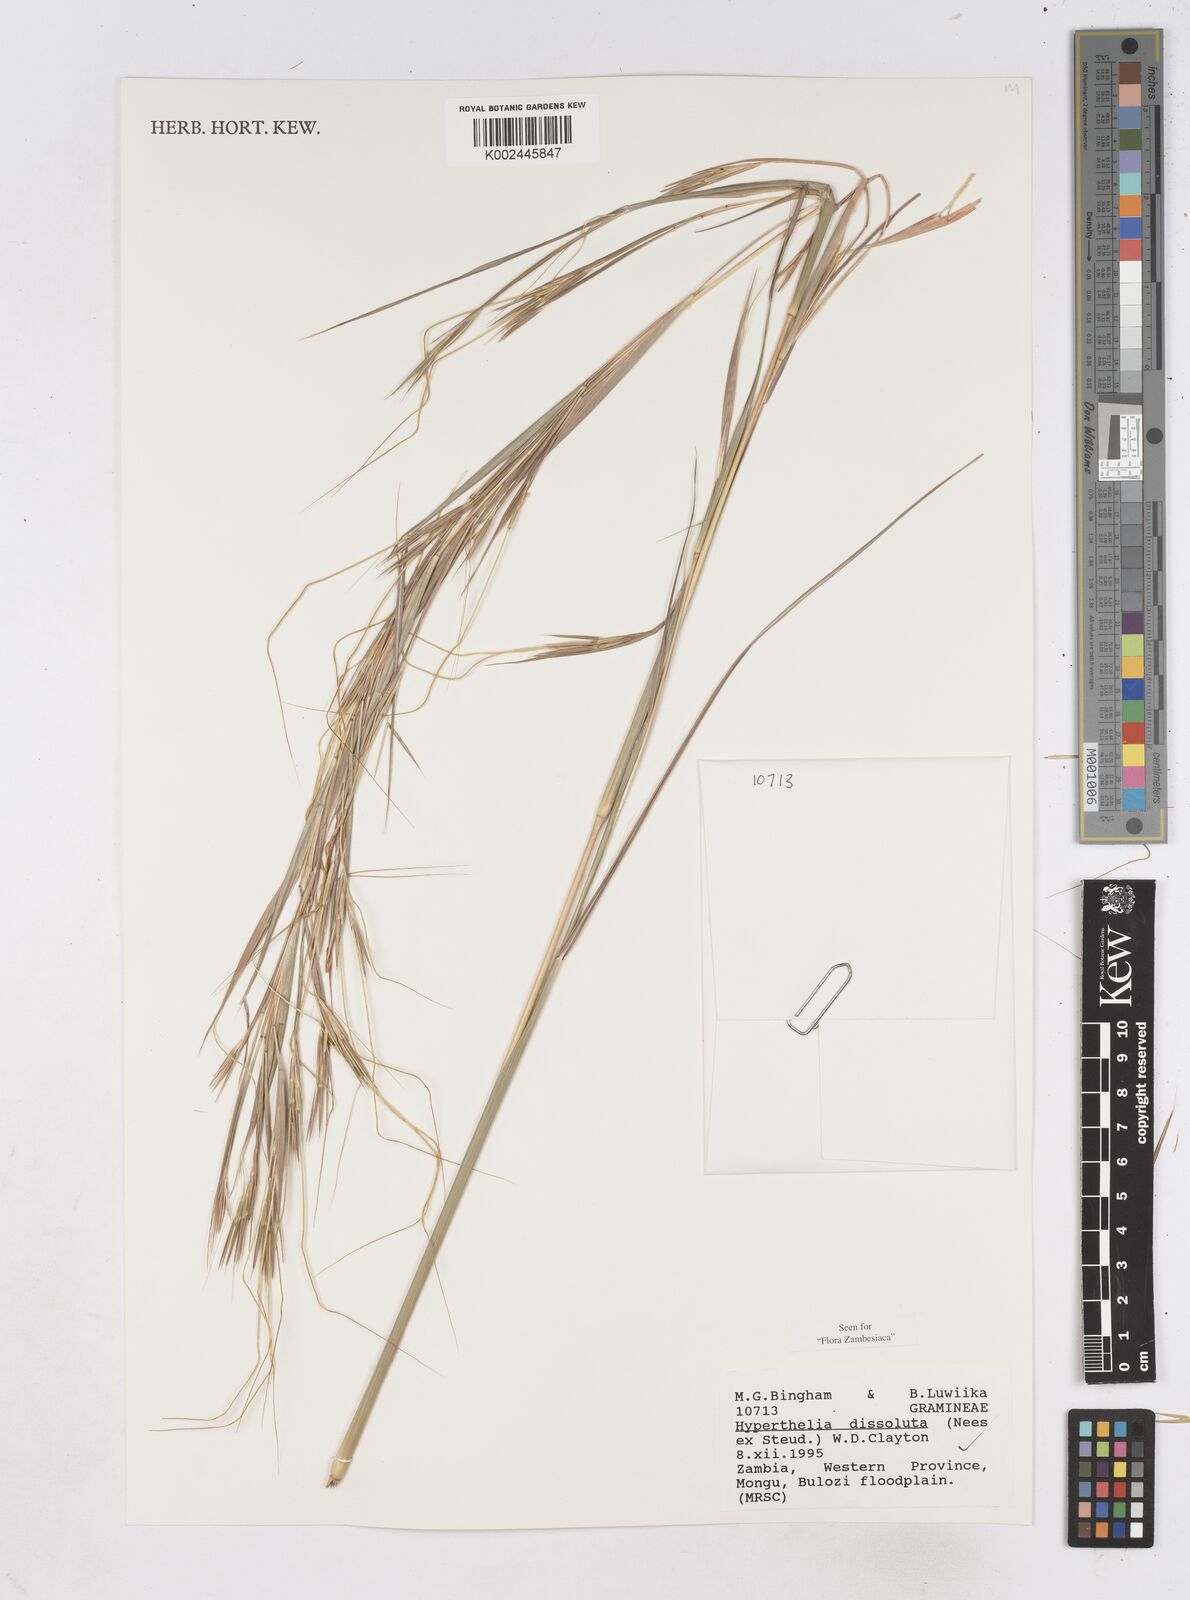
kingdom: Plantae
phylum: Tracheophyta
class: Liliopsida
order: Poales
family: Poaceae
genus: Hyperthelia
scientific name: Hyperthelia dissoluta
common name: Yellow thatching grass
